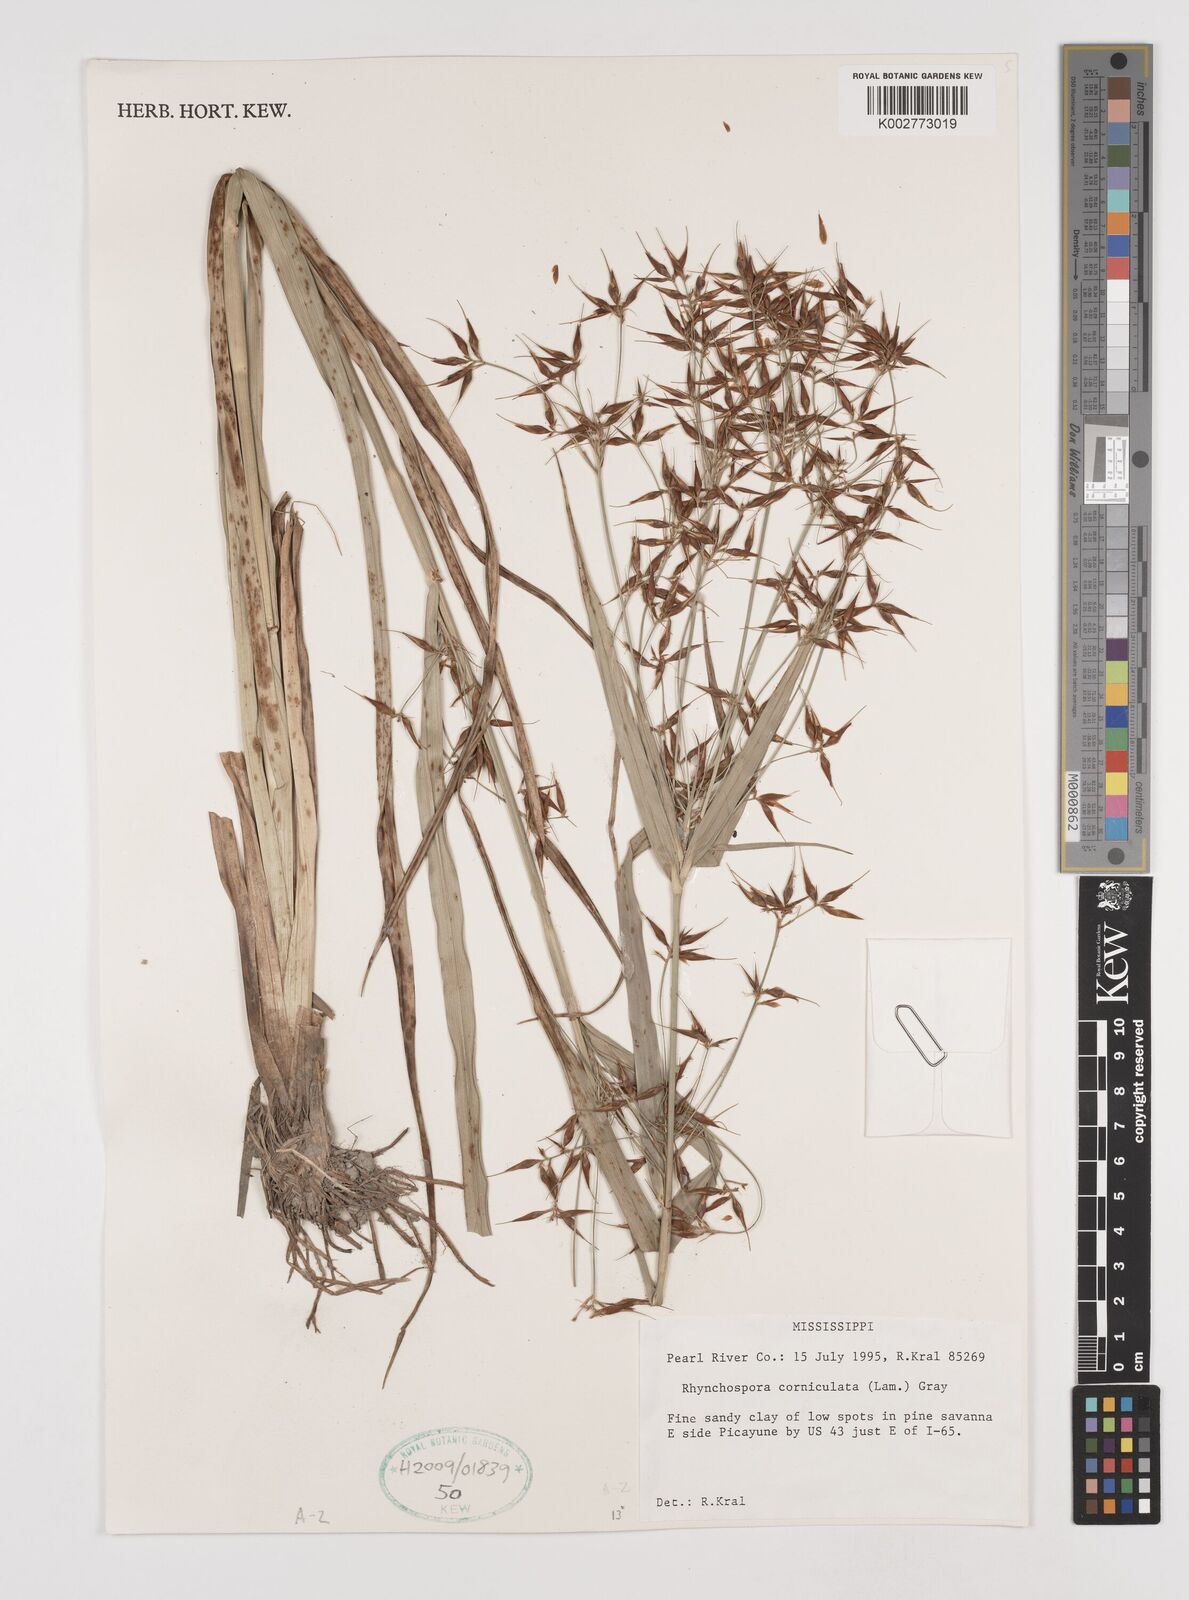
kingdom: Plantae
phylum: Tracheophyta
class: Liliopsida
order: Poales
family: Cyperaceae
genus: Rhynchospora
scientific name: Rhynchospora corniculata
